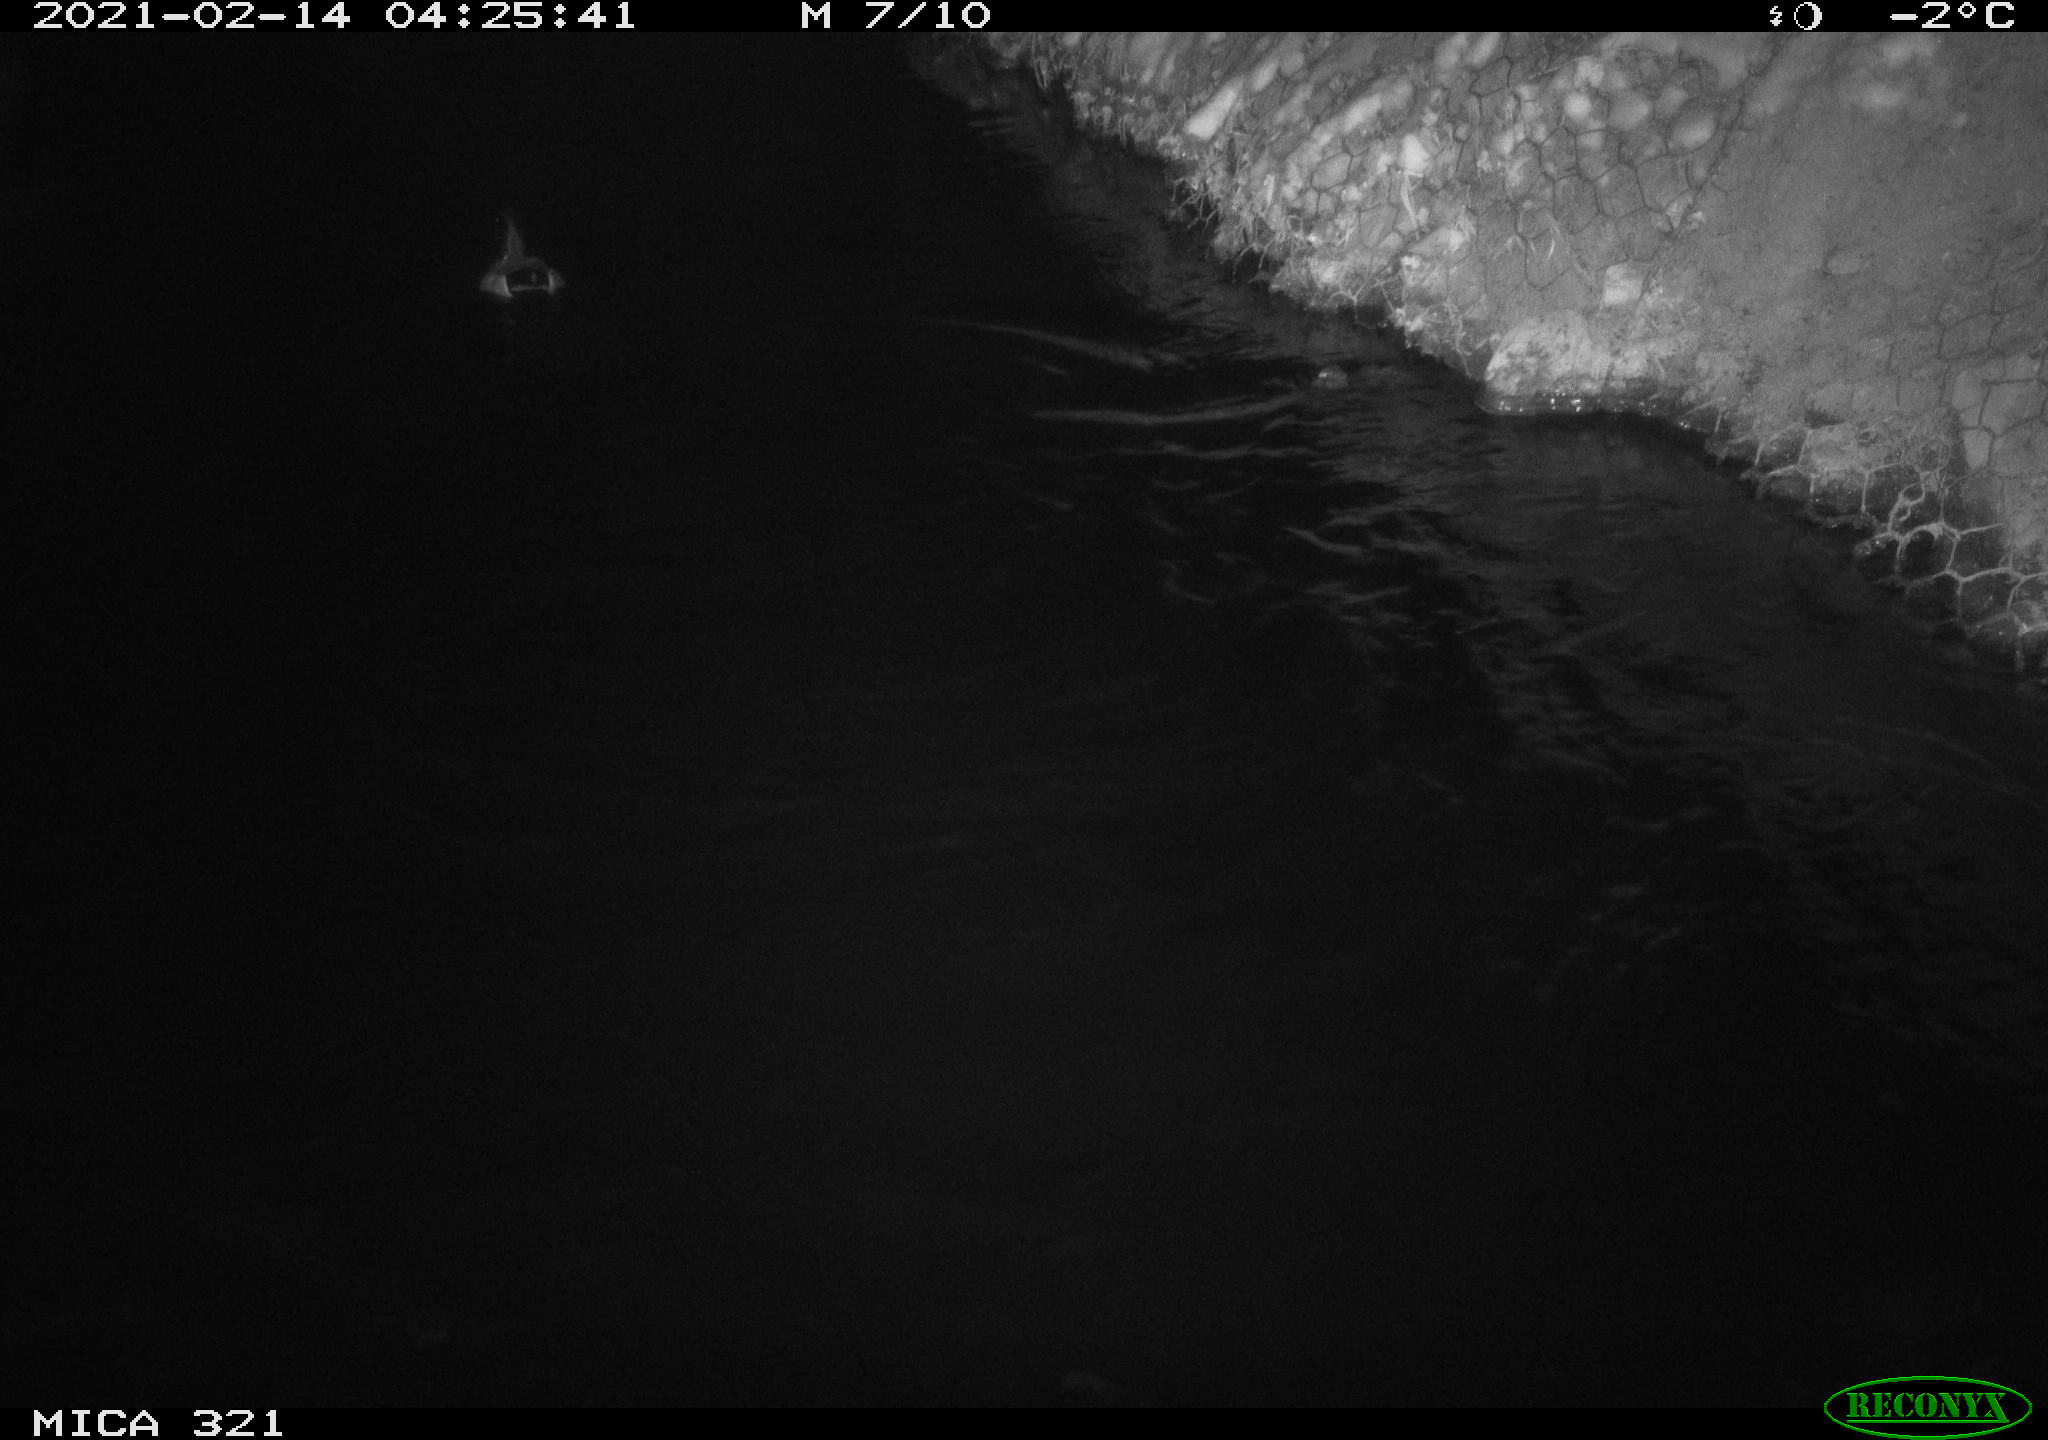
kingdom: Animalia
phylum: Chordata
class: Aves
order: Anseriformes
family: Anatidae
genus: Anas
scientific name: Anas platyrhynchos
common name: Mallard
